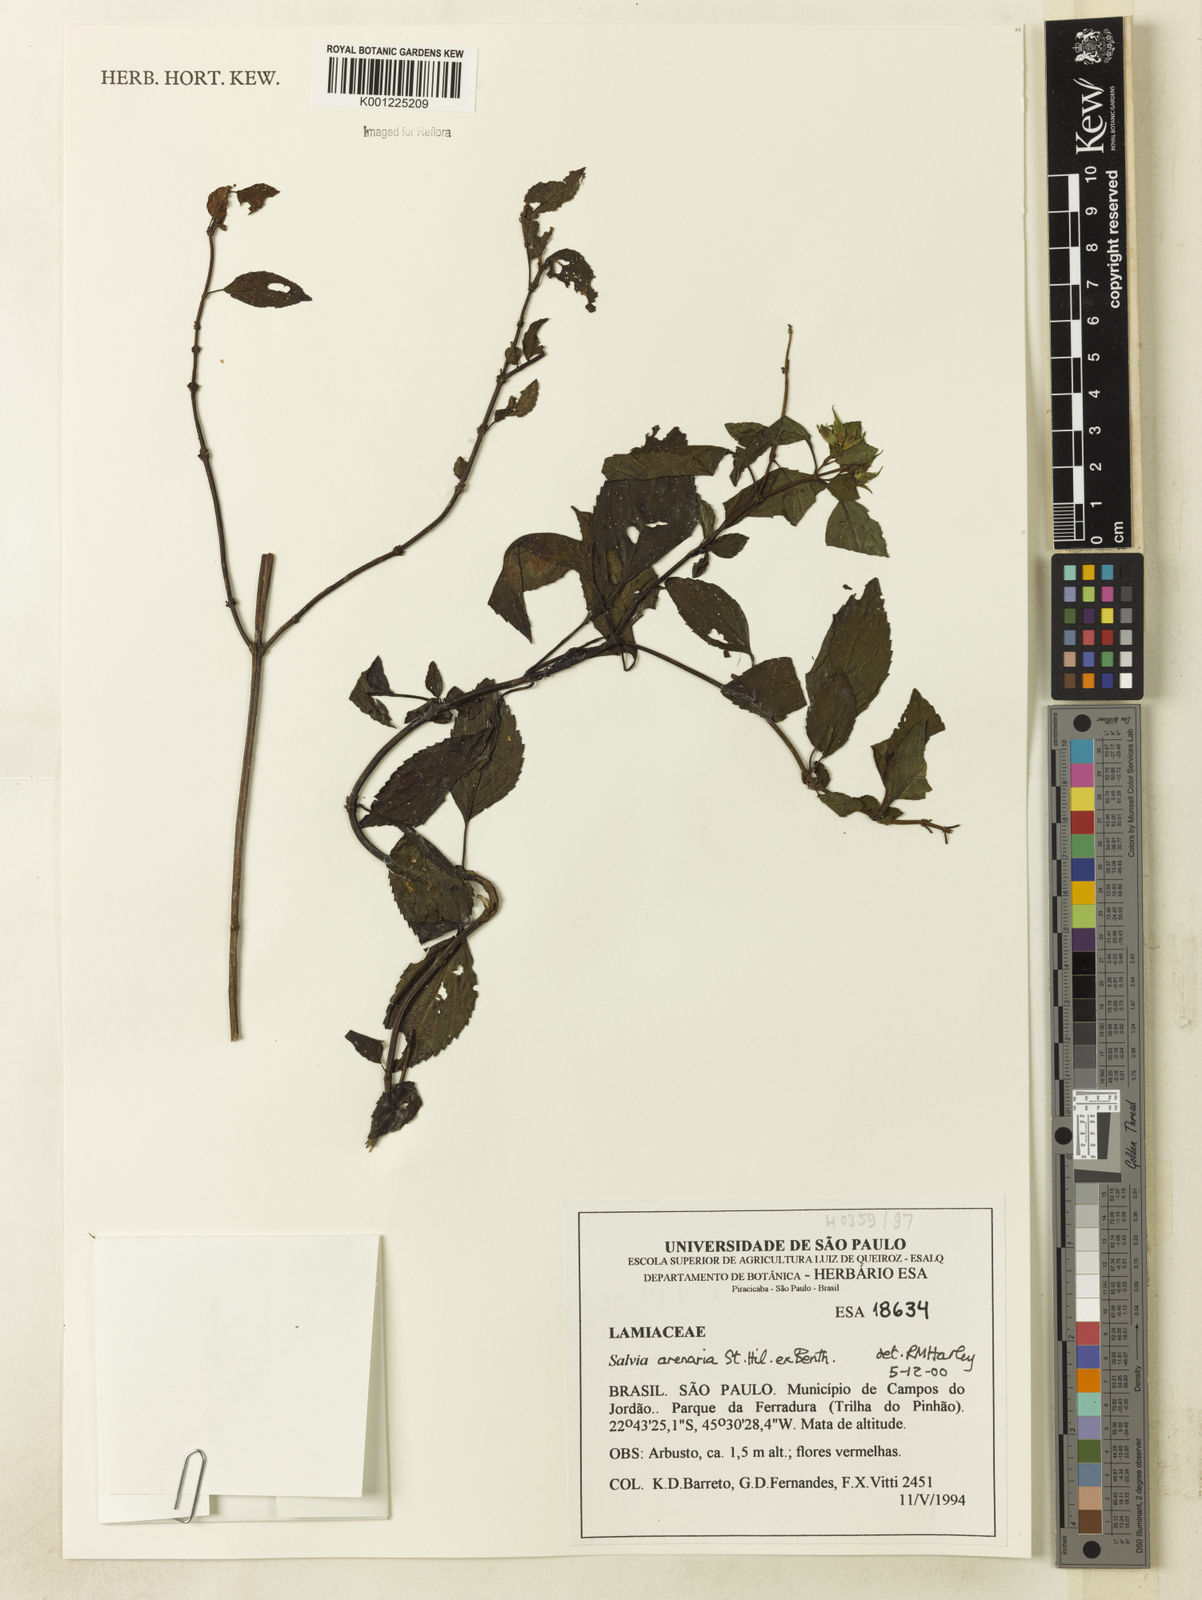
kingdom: Plantae
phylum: Tracheophyta
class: Magnoliopsida
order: Lamiales
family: Lamiaceae
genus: Salvia
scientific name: Salvia arenaria
